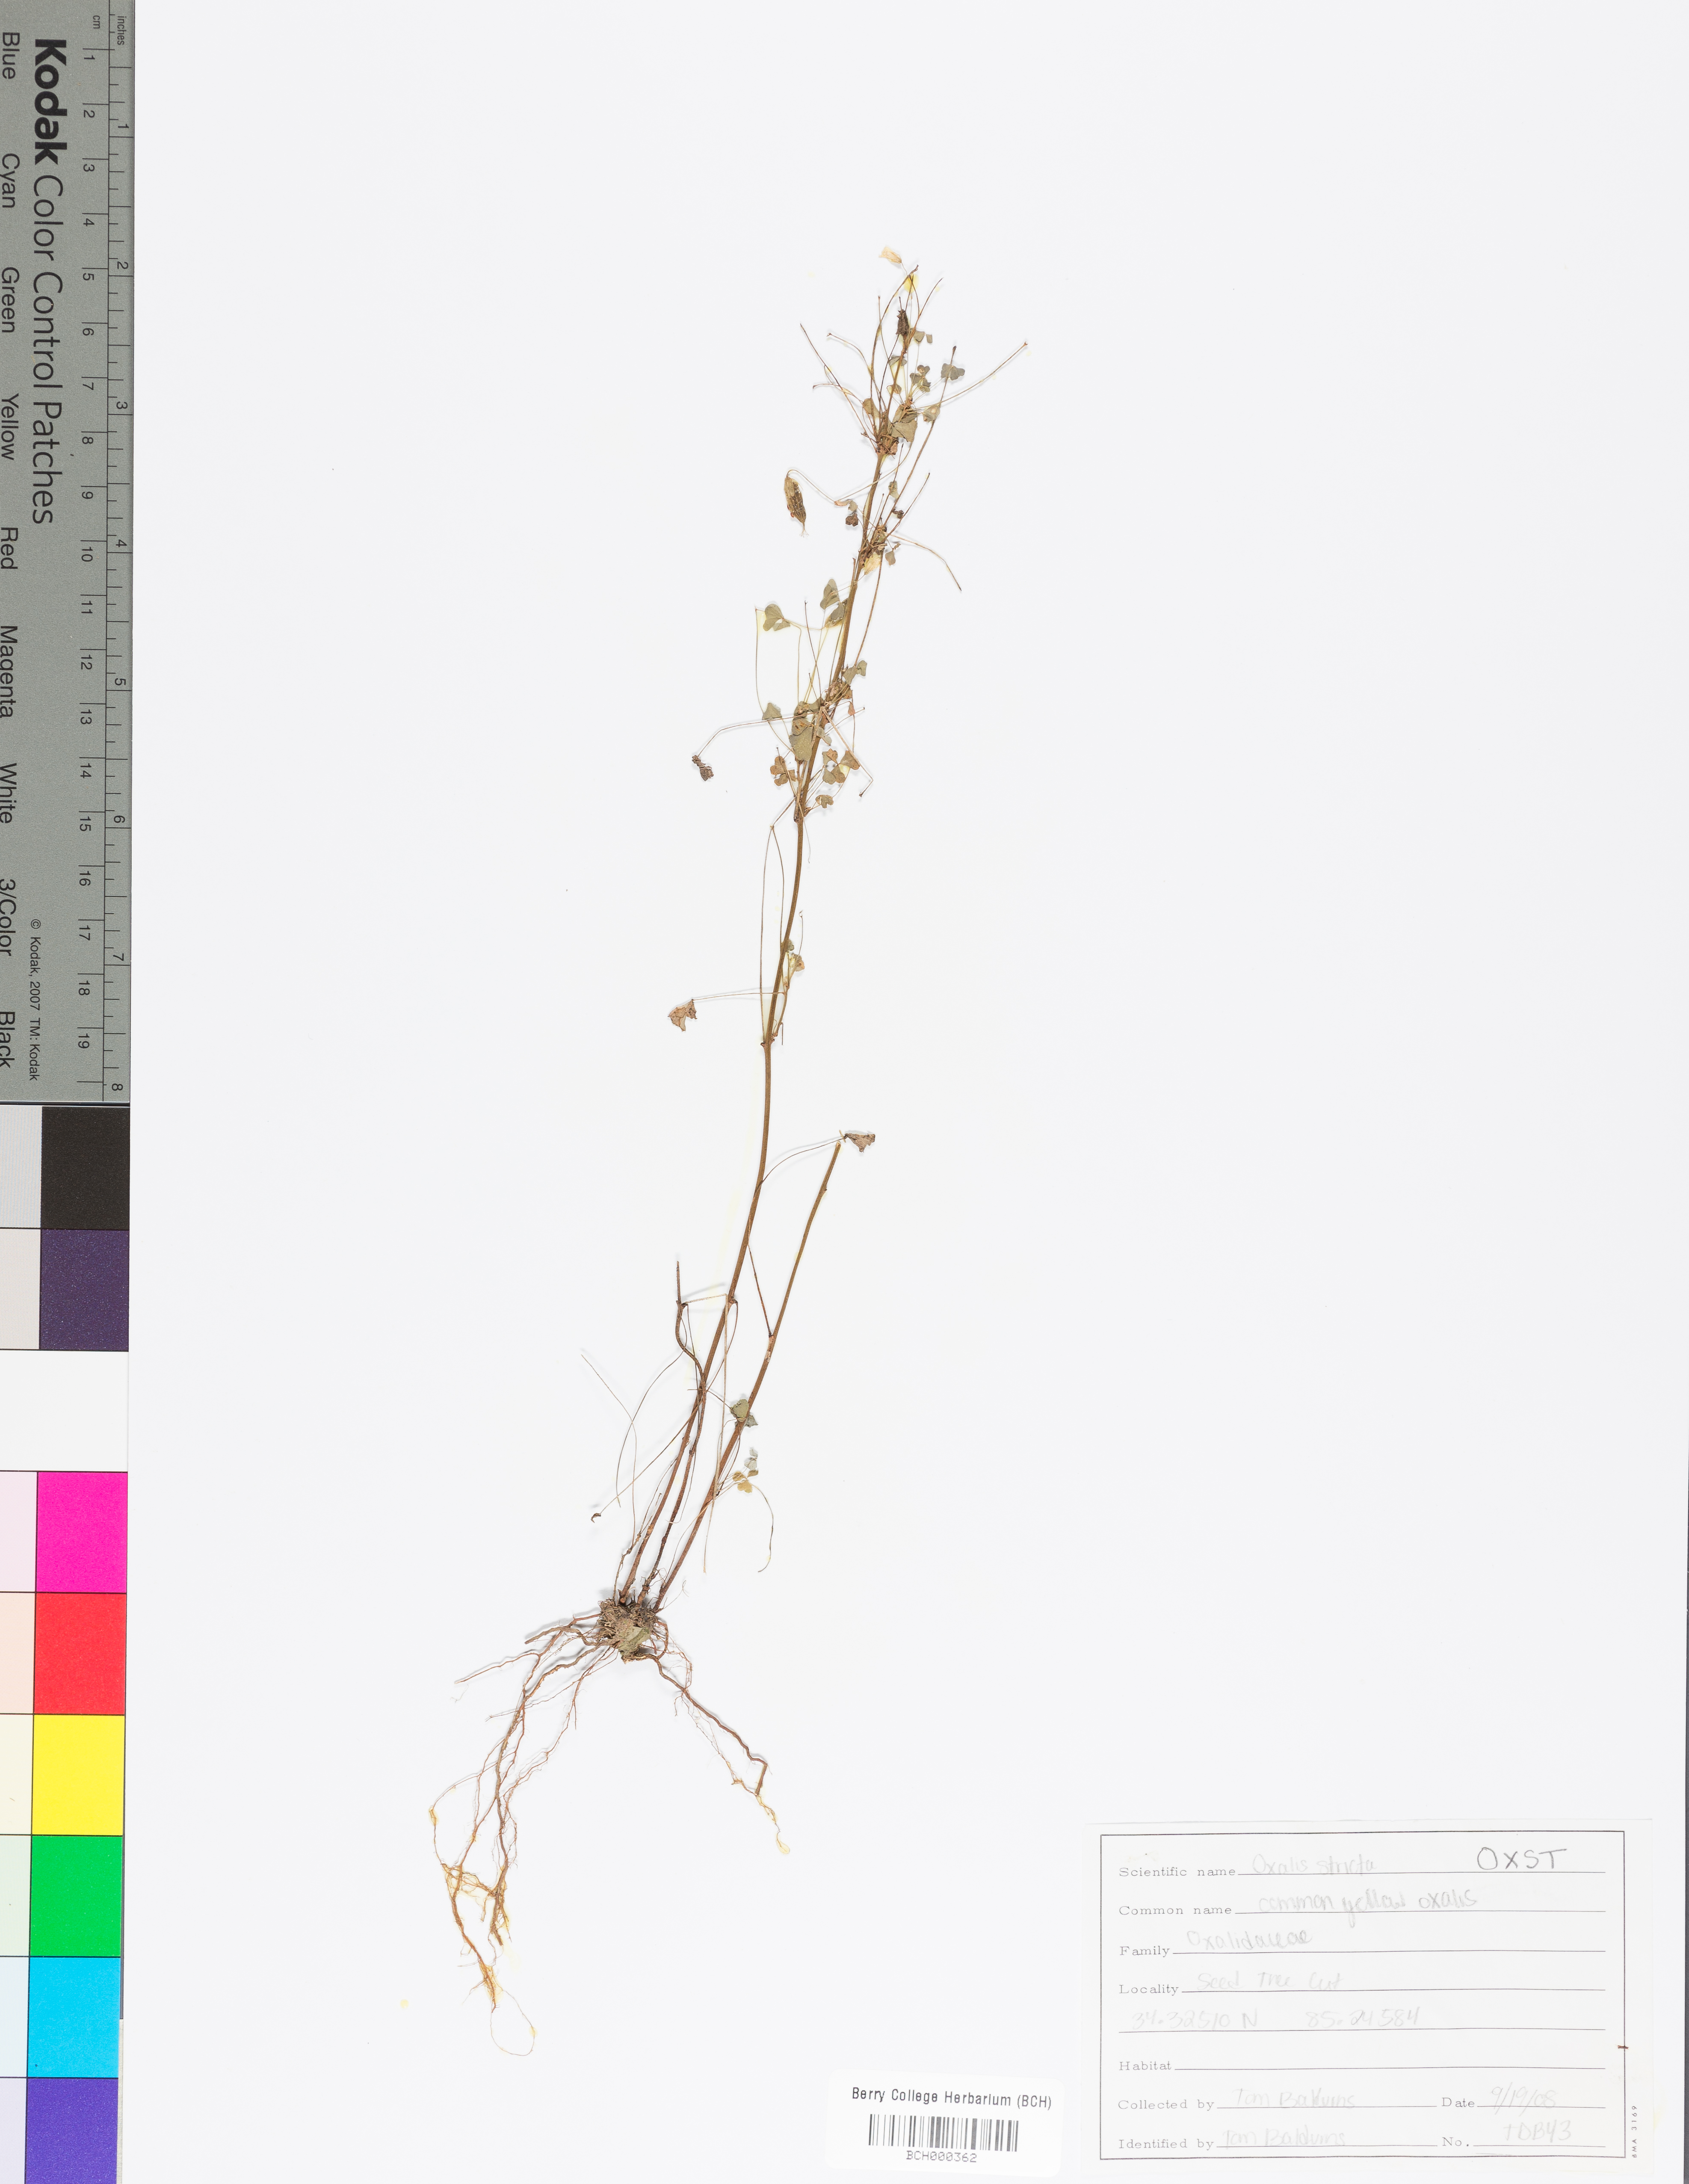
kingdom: Plantae
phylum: Tracheophyta
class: Magnoliopsida
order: Oxalidales
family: Oxalidaceae
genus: Oxalis
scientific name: Oxalis stricta
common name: Upright yellow-sorrel
